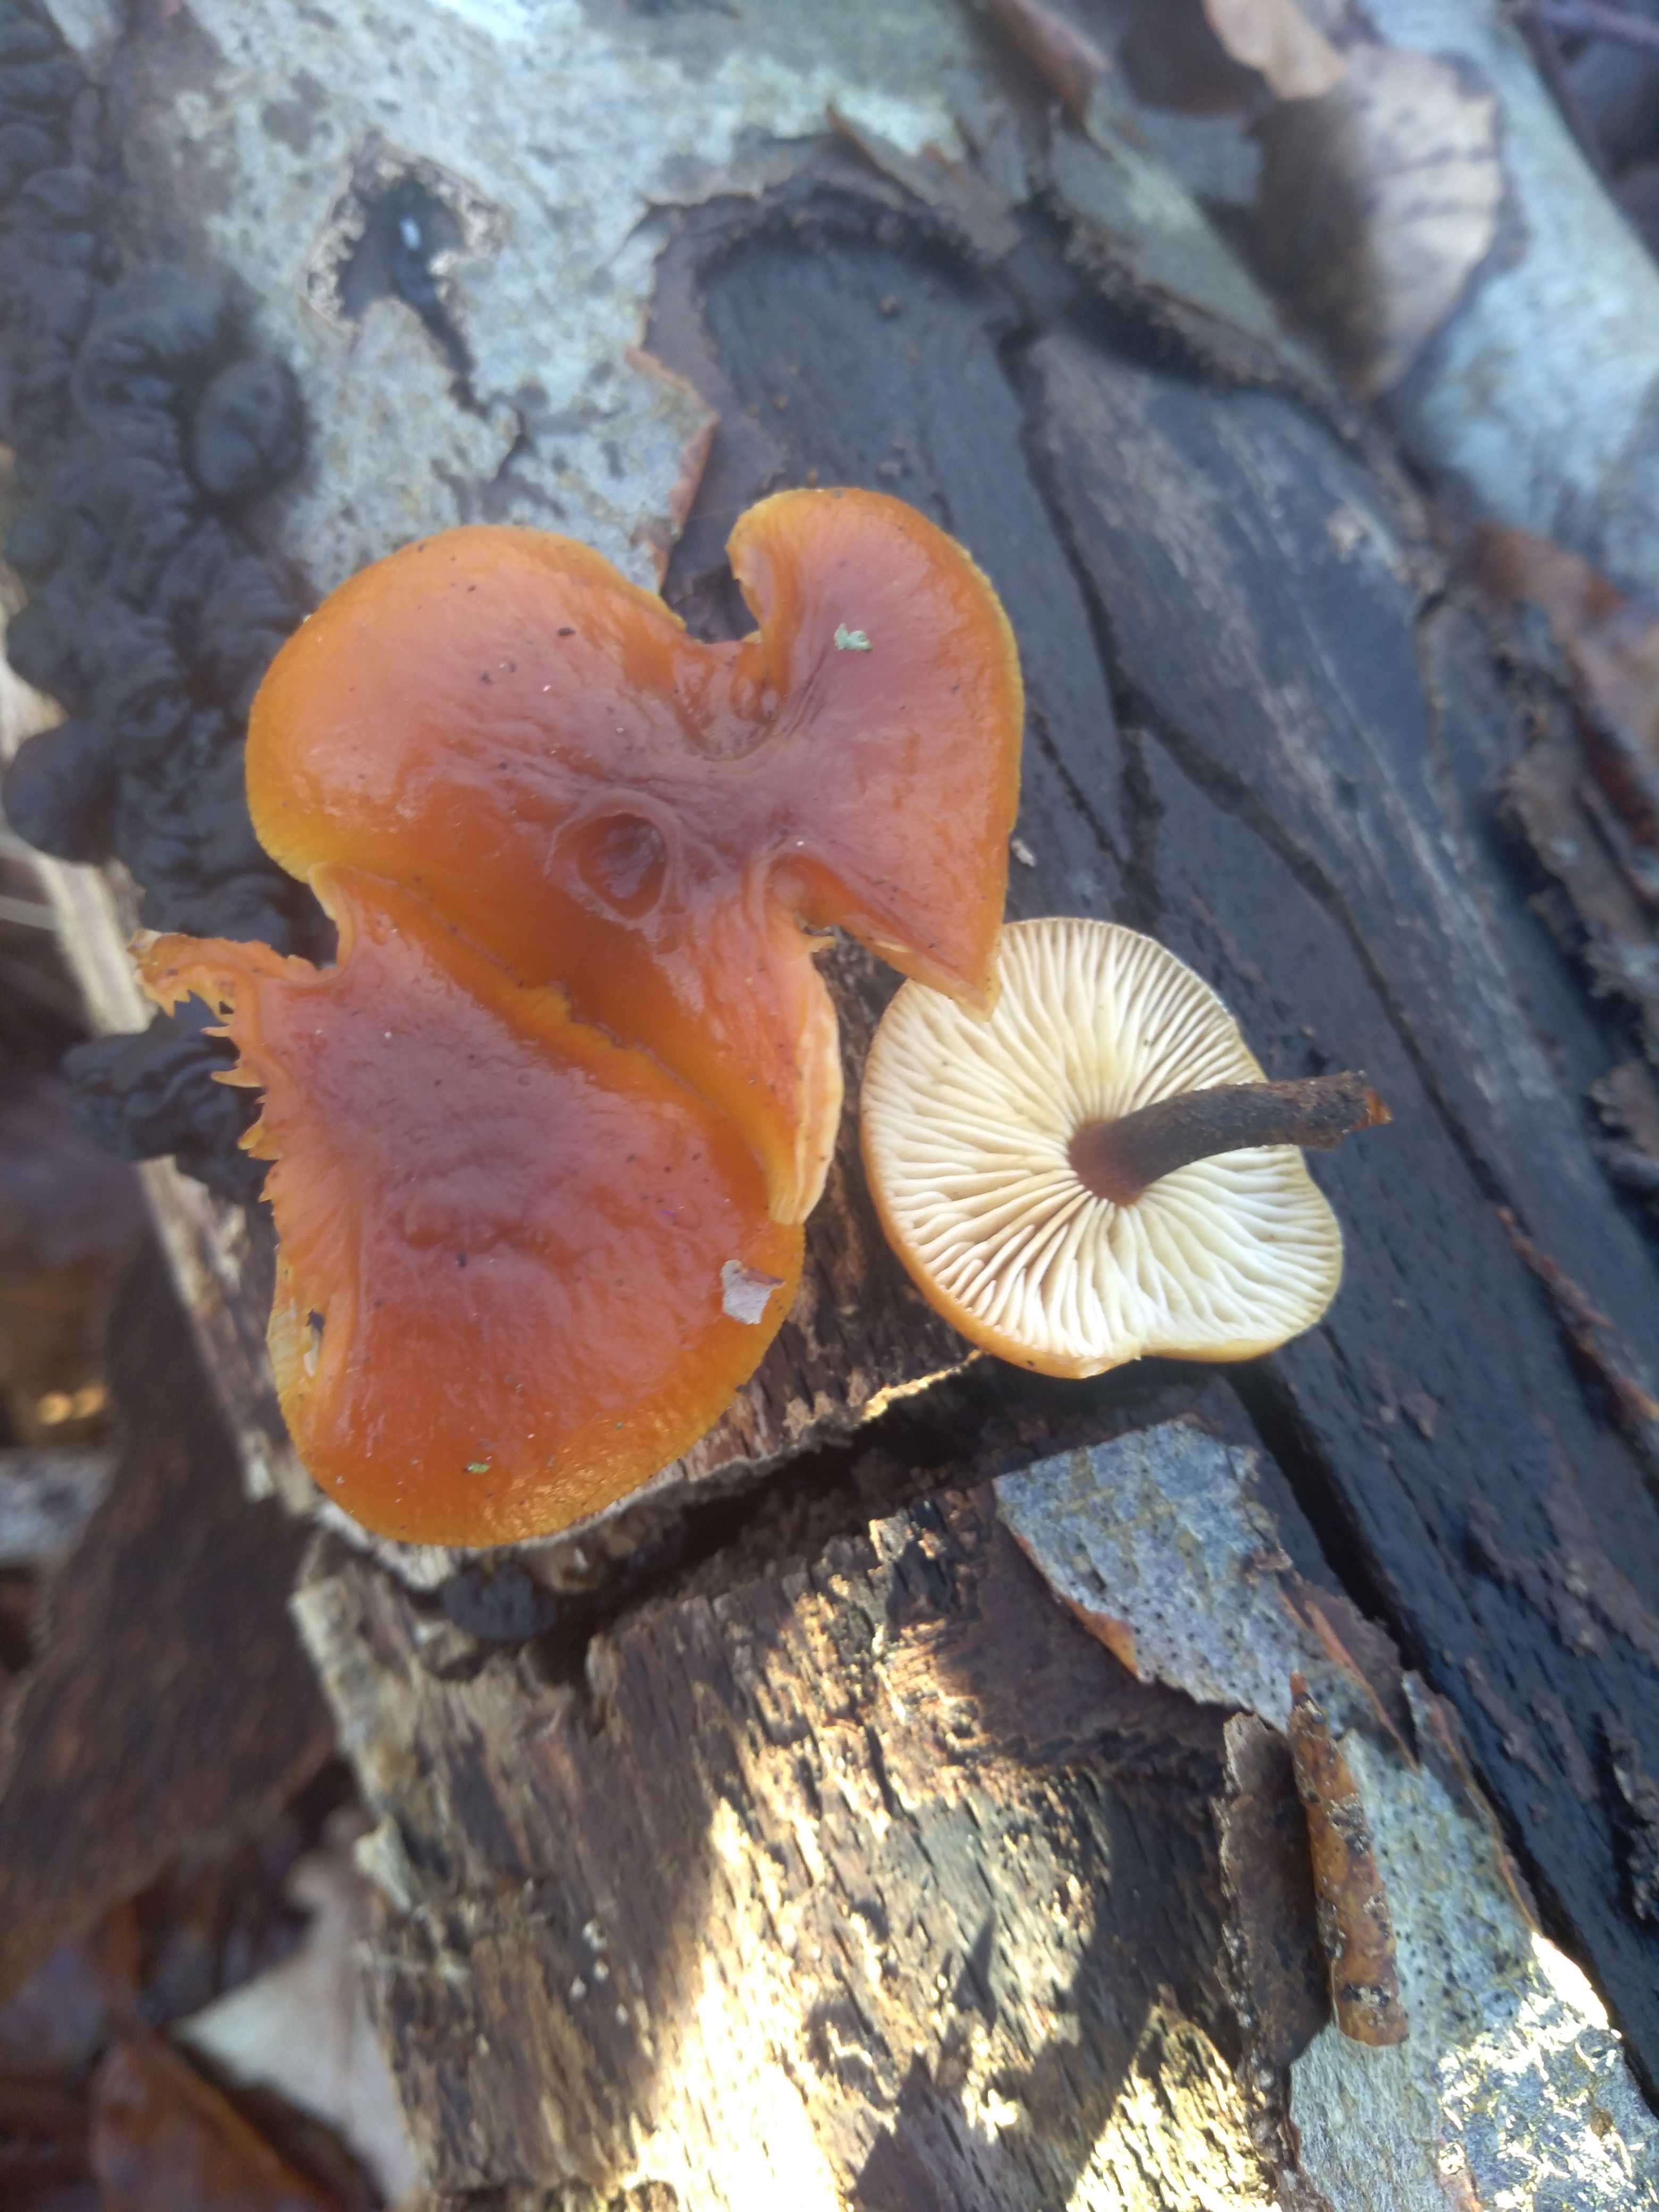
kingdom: Fungi
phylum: Basidiomycota
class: Agaricomycetes
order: Agaricales
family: Physalacriaceae
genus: Flammulina
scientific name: Flammulina velutipes
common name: gul fløjlsfod
